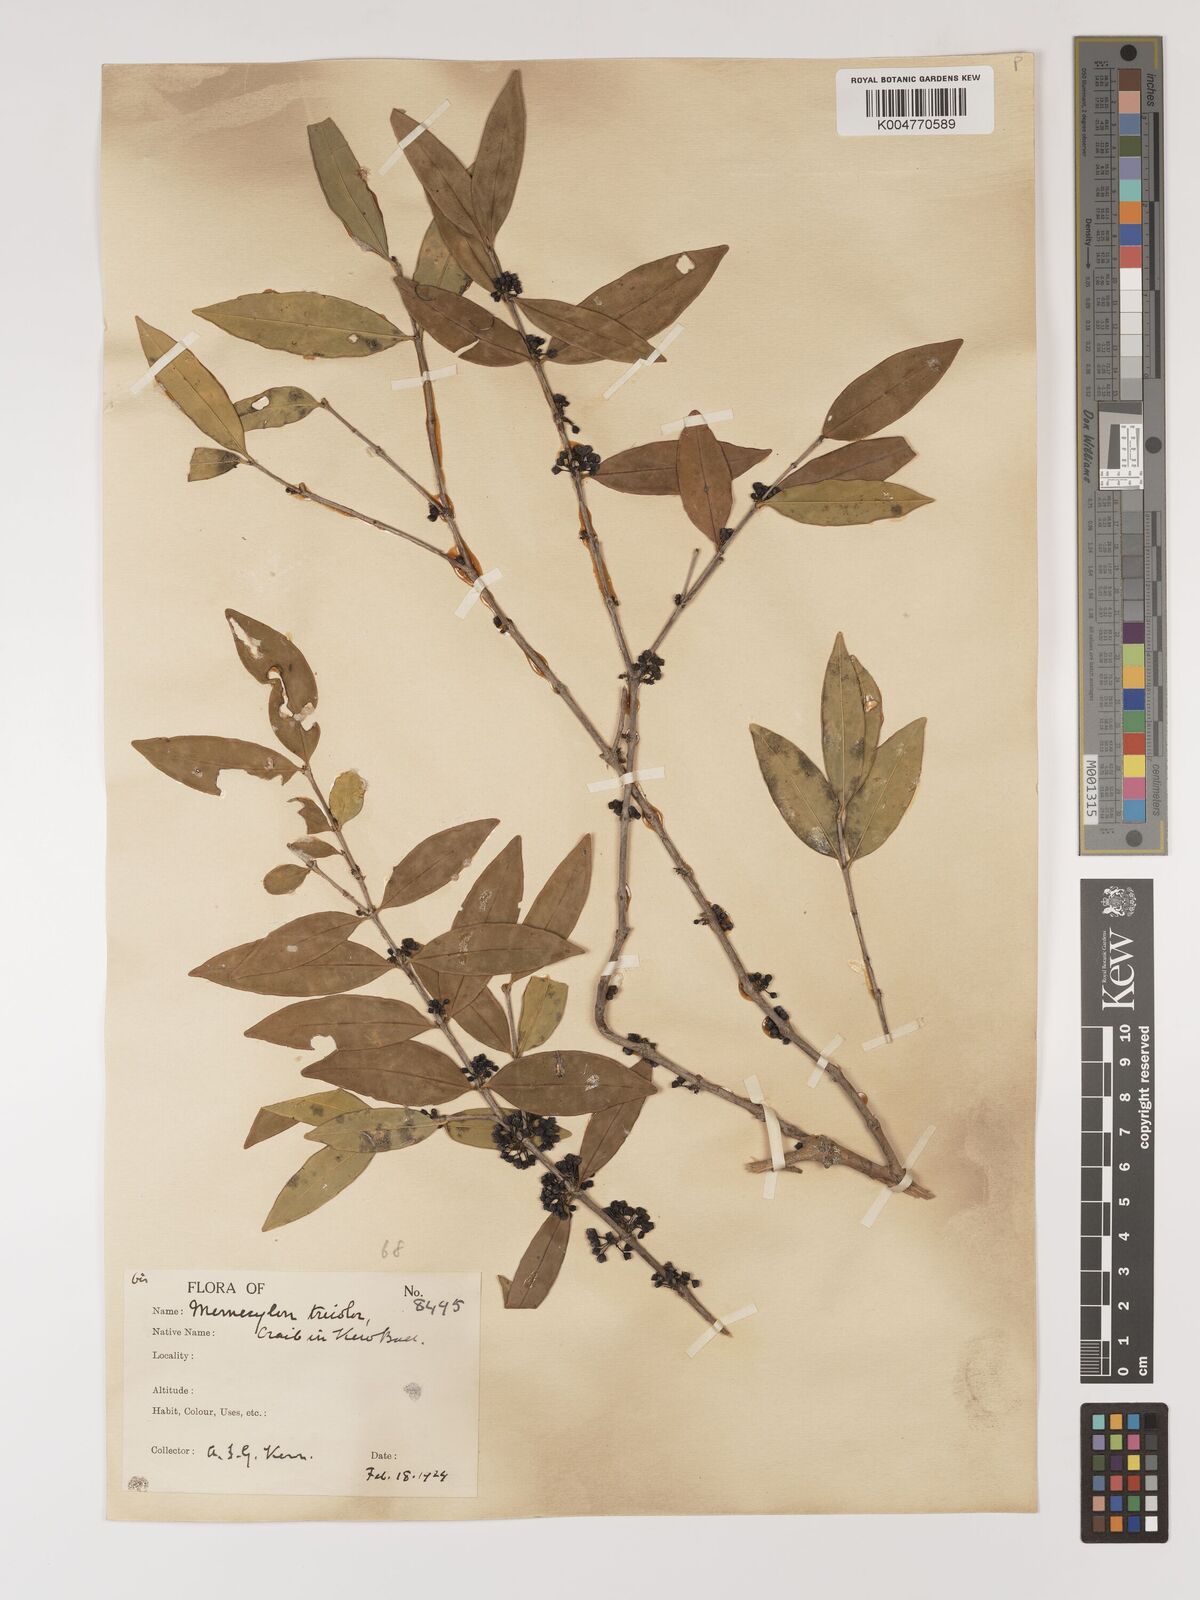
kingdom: Plantae
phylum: Tracheophyta
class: Magnoliopsida
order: Myrtales
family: Melastomataceae
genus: Memecylon
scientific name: Memecylon tricolor
